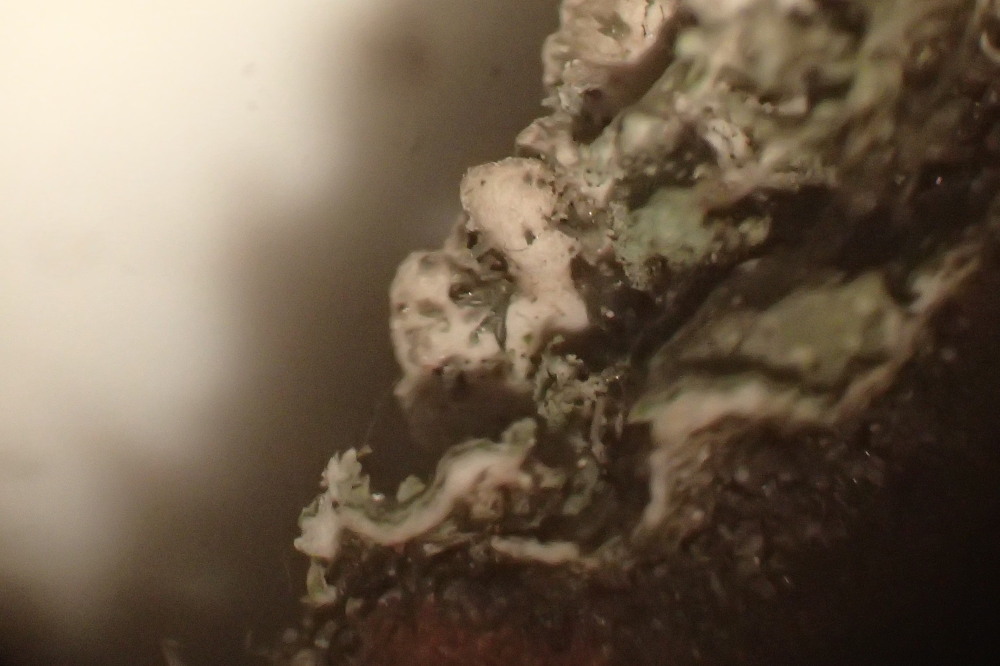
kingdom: Fungi
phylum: Ascomycota
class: Lecanoromycetes
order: Caliciales
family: Physciaceae
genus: Physconia
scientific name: Physconia
